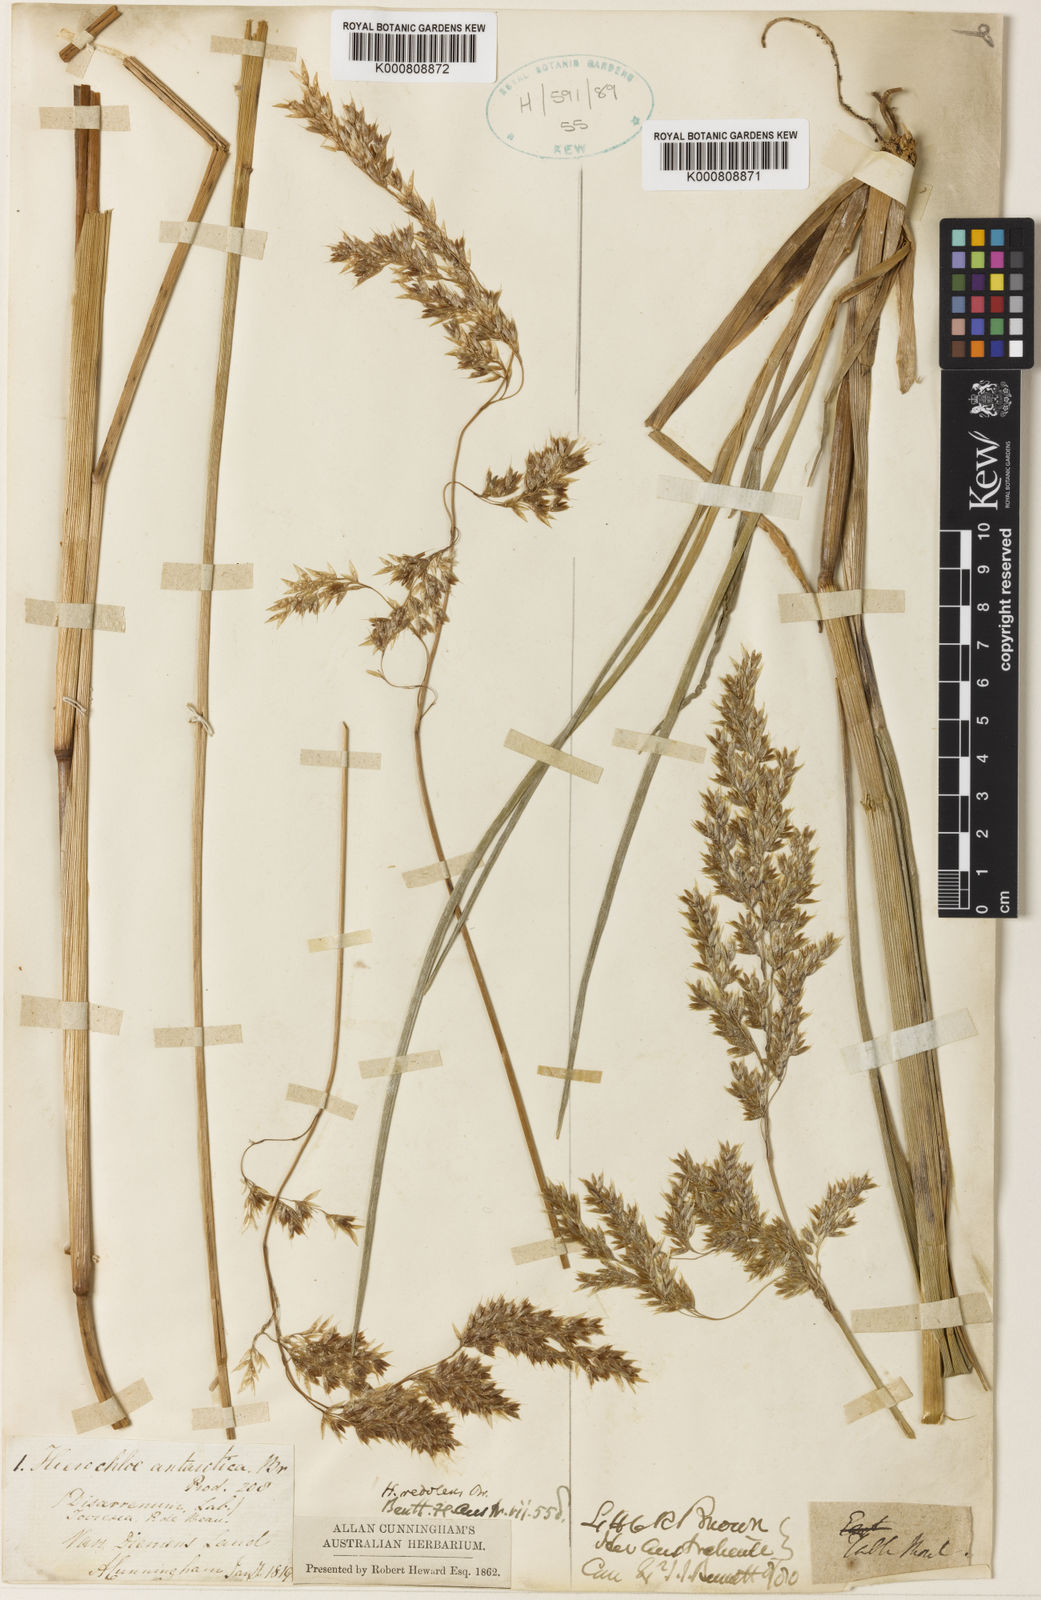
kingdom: Plantae
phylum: Tracheophyta
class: Liliopsida
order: Poales
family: Poaceae
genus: Hierochloe
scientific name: Hierochloe
